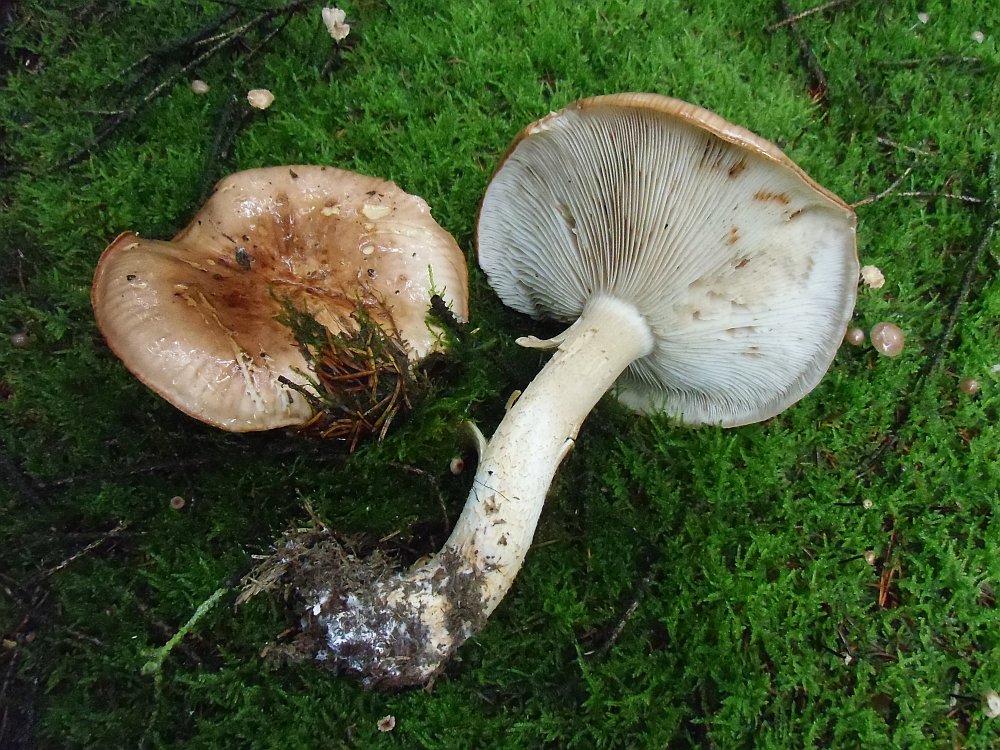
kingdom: Fungi
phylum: Basidiomycota
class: Agaricomycetes
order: Agaricales
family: Tricholomataceae
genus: Tricholoma
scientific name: Tricholoma stans
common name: stolt ridderhat
